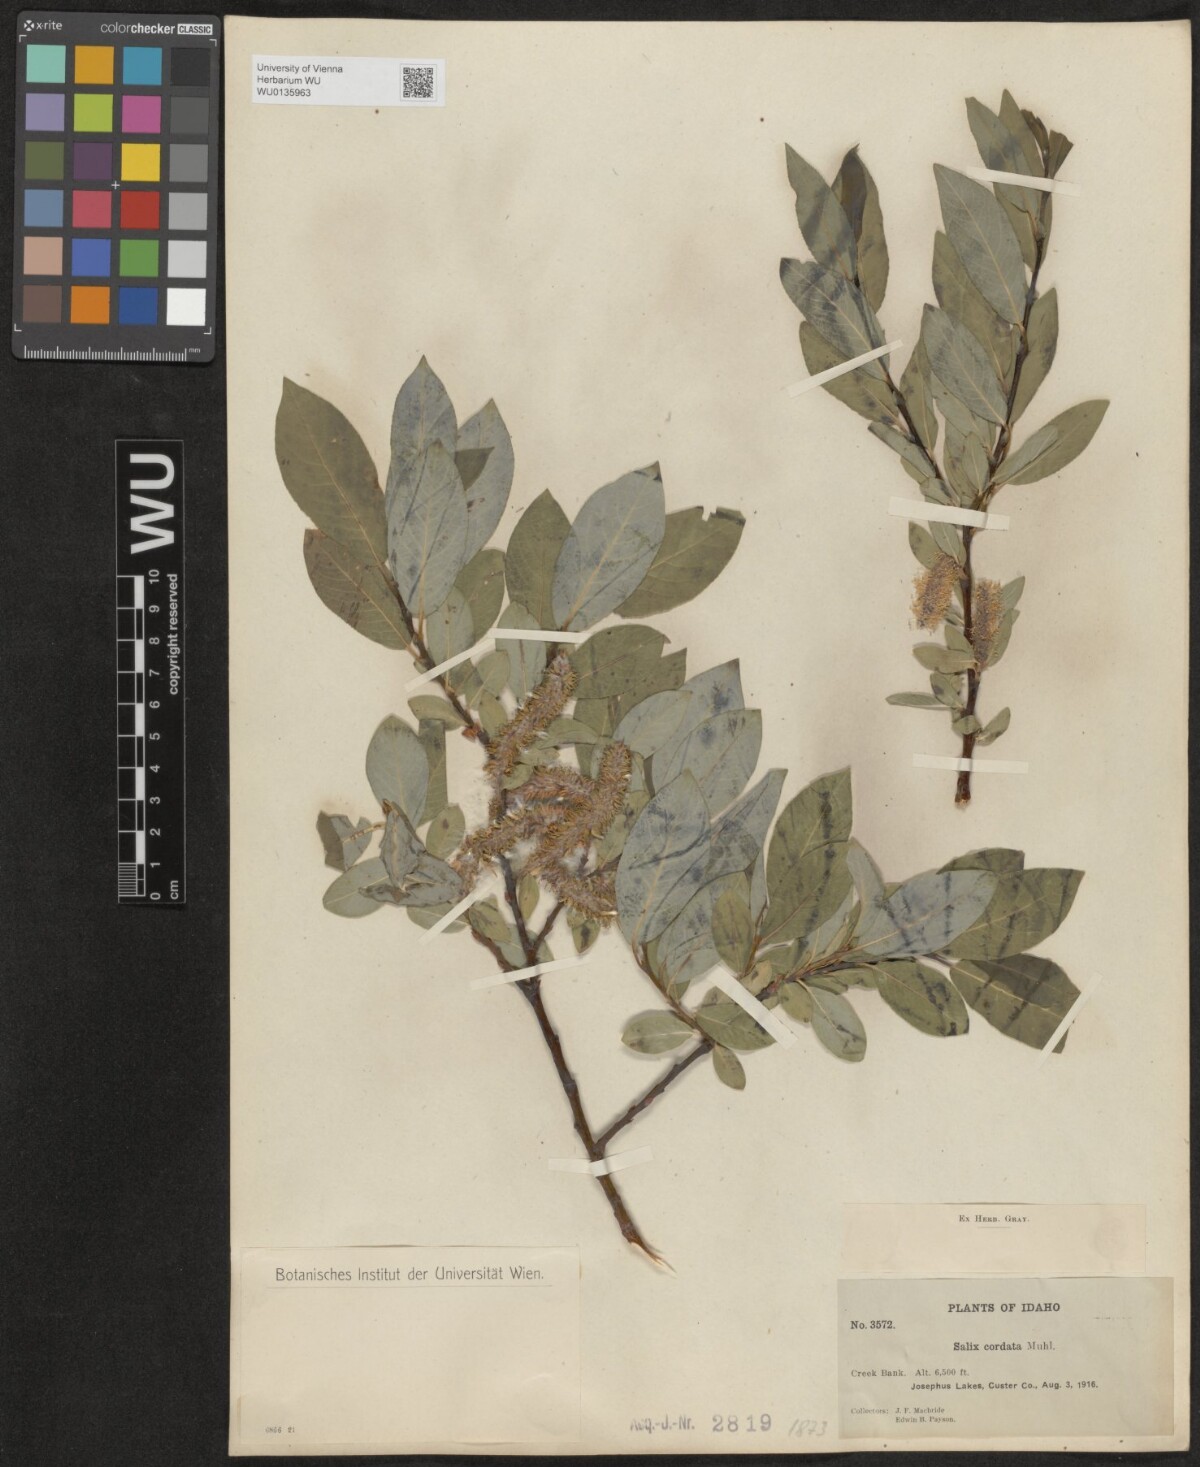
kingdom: Plantae
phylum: Tracheophyta
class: Magnoliopsida
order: Malpighiales
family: Salicaceae
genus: Salix
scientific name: Salix cordata
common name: Heart-leaf willow
